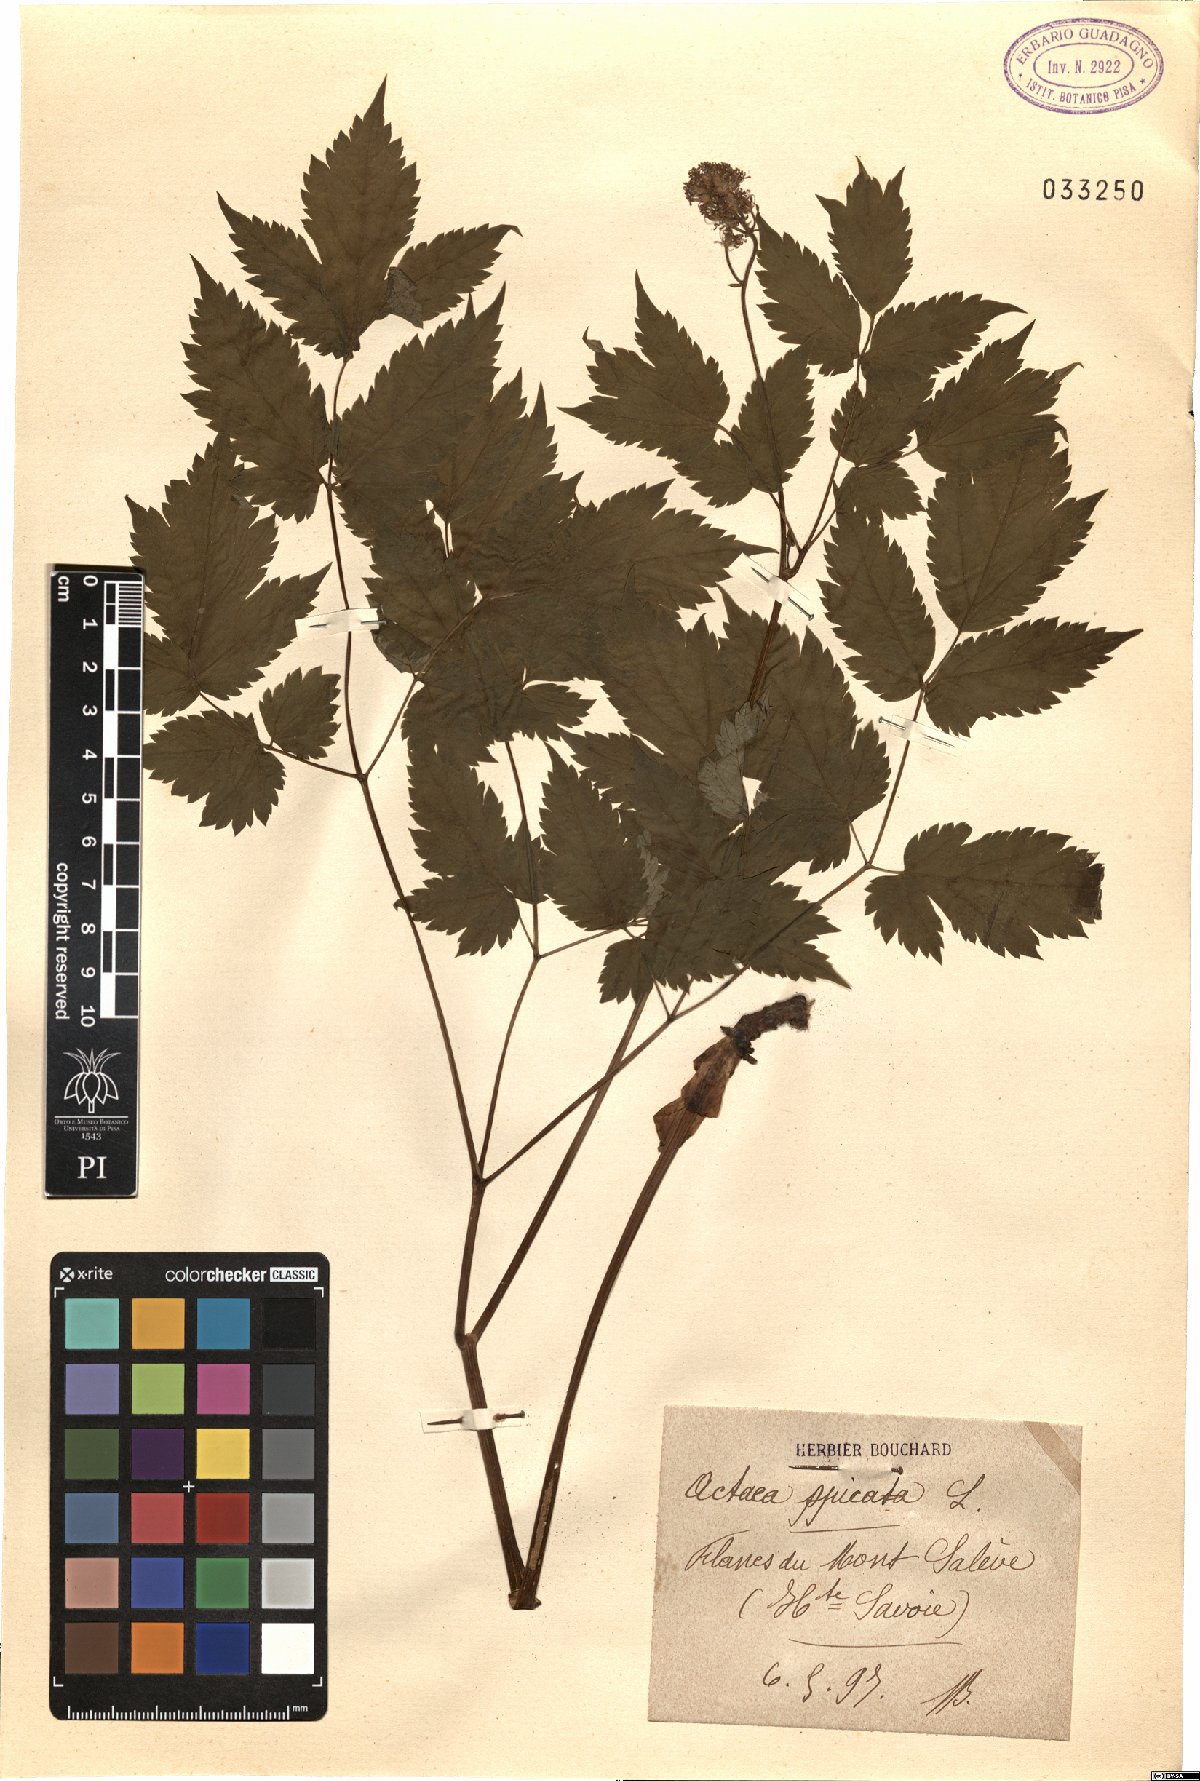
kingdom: Plantae
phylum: Tracheophyta
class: Magnoliopsida
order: Ranunculales
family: Ranunculaceae
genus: Actaea
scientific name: Actaea spicata
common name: Baneberry
